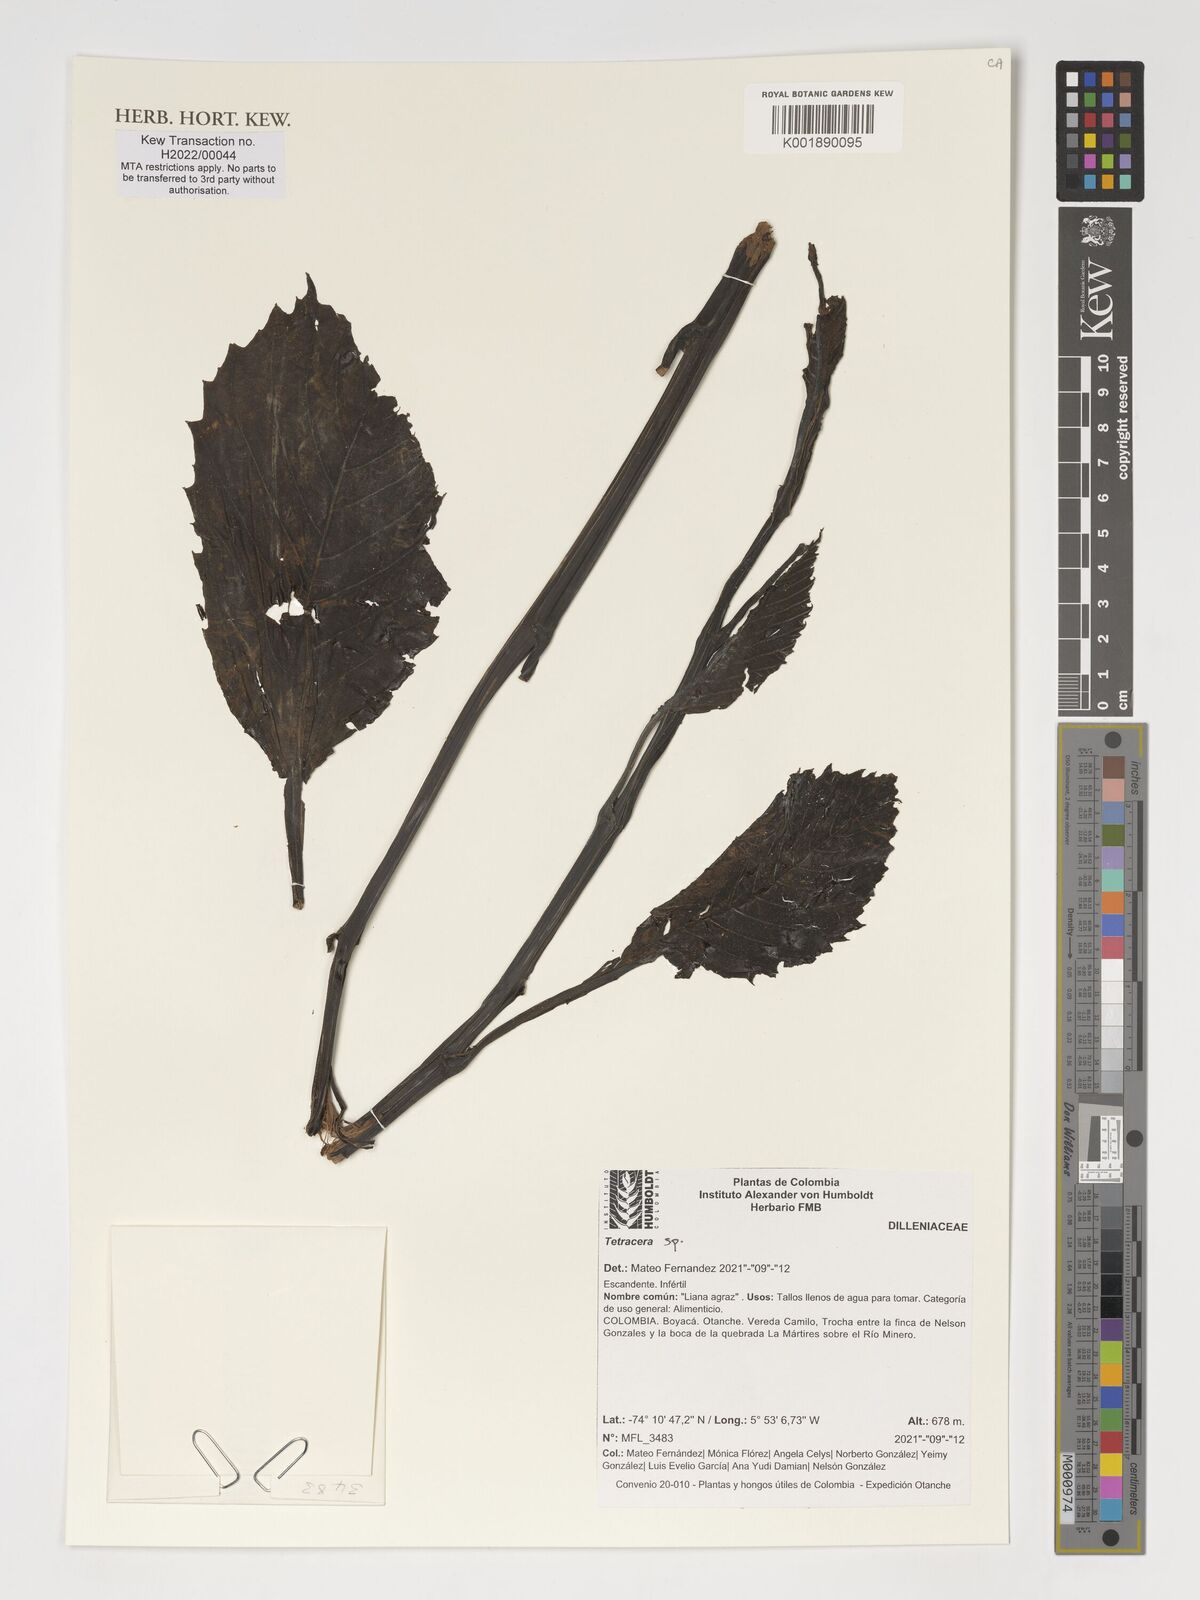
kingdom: Plantae
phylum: Tracheophyta
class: Magnoliopsida
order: Dilleniales
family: Dilleniaceae
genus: Tetracera
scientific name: Tetracera
